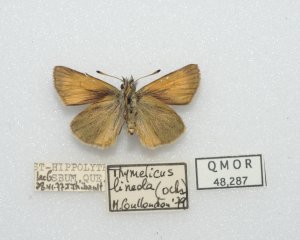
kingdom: Animalia
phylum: Arthropoda
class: Insecta
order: Lepidoptera
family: Hesperiidae
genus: Thymelicus
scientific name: Thymelicus lineola
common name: European Skipper
